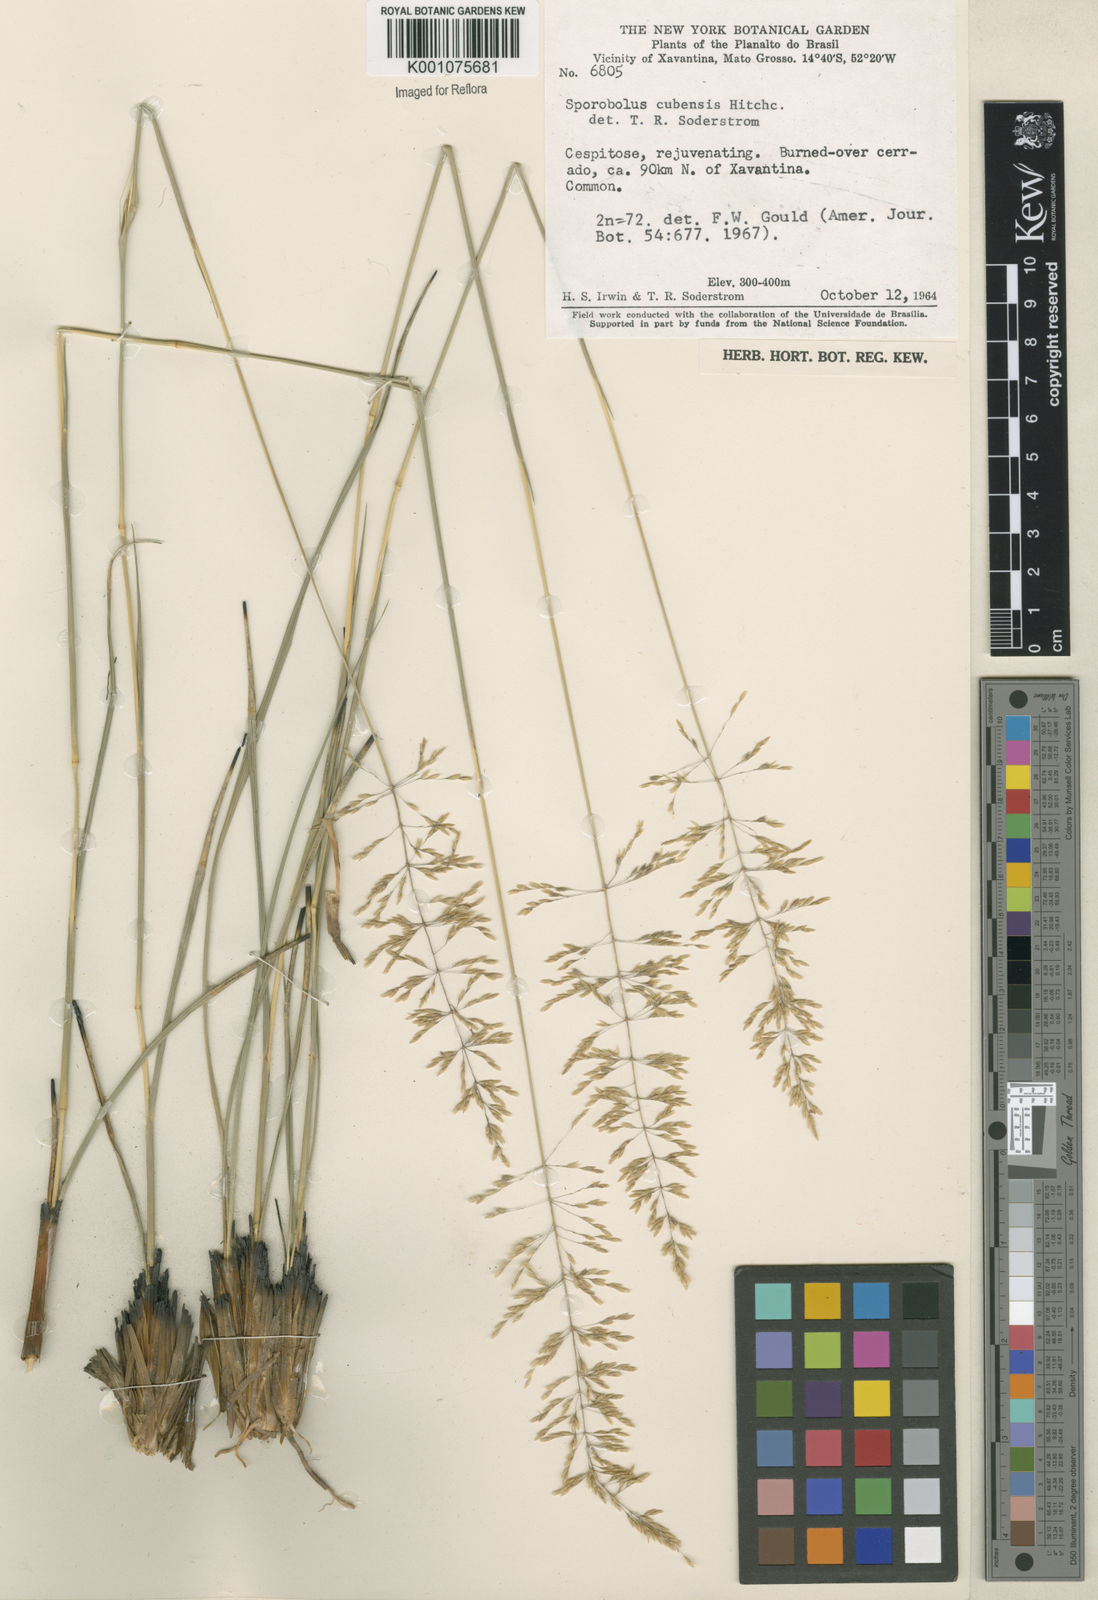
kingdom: Plantae
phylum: Tracheophyta
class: Liliopsida
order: Poales
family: Poaceae
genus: Sporobolus
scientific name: Sporobolus cubensis
